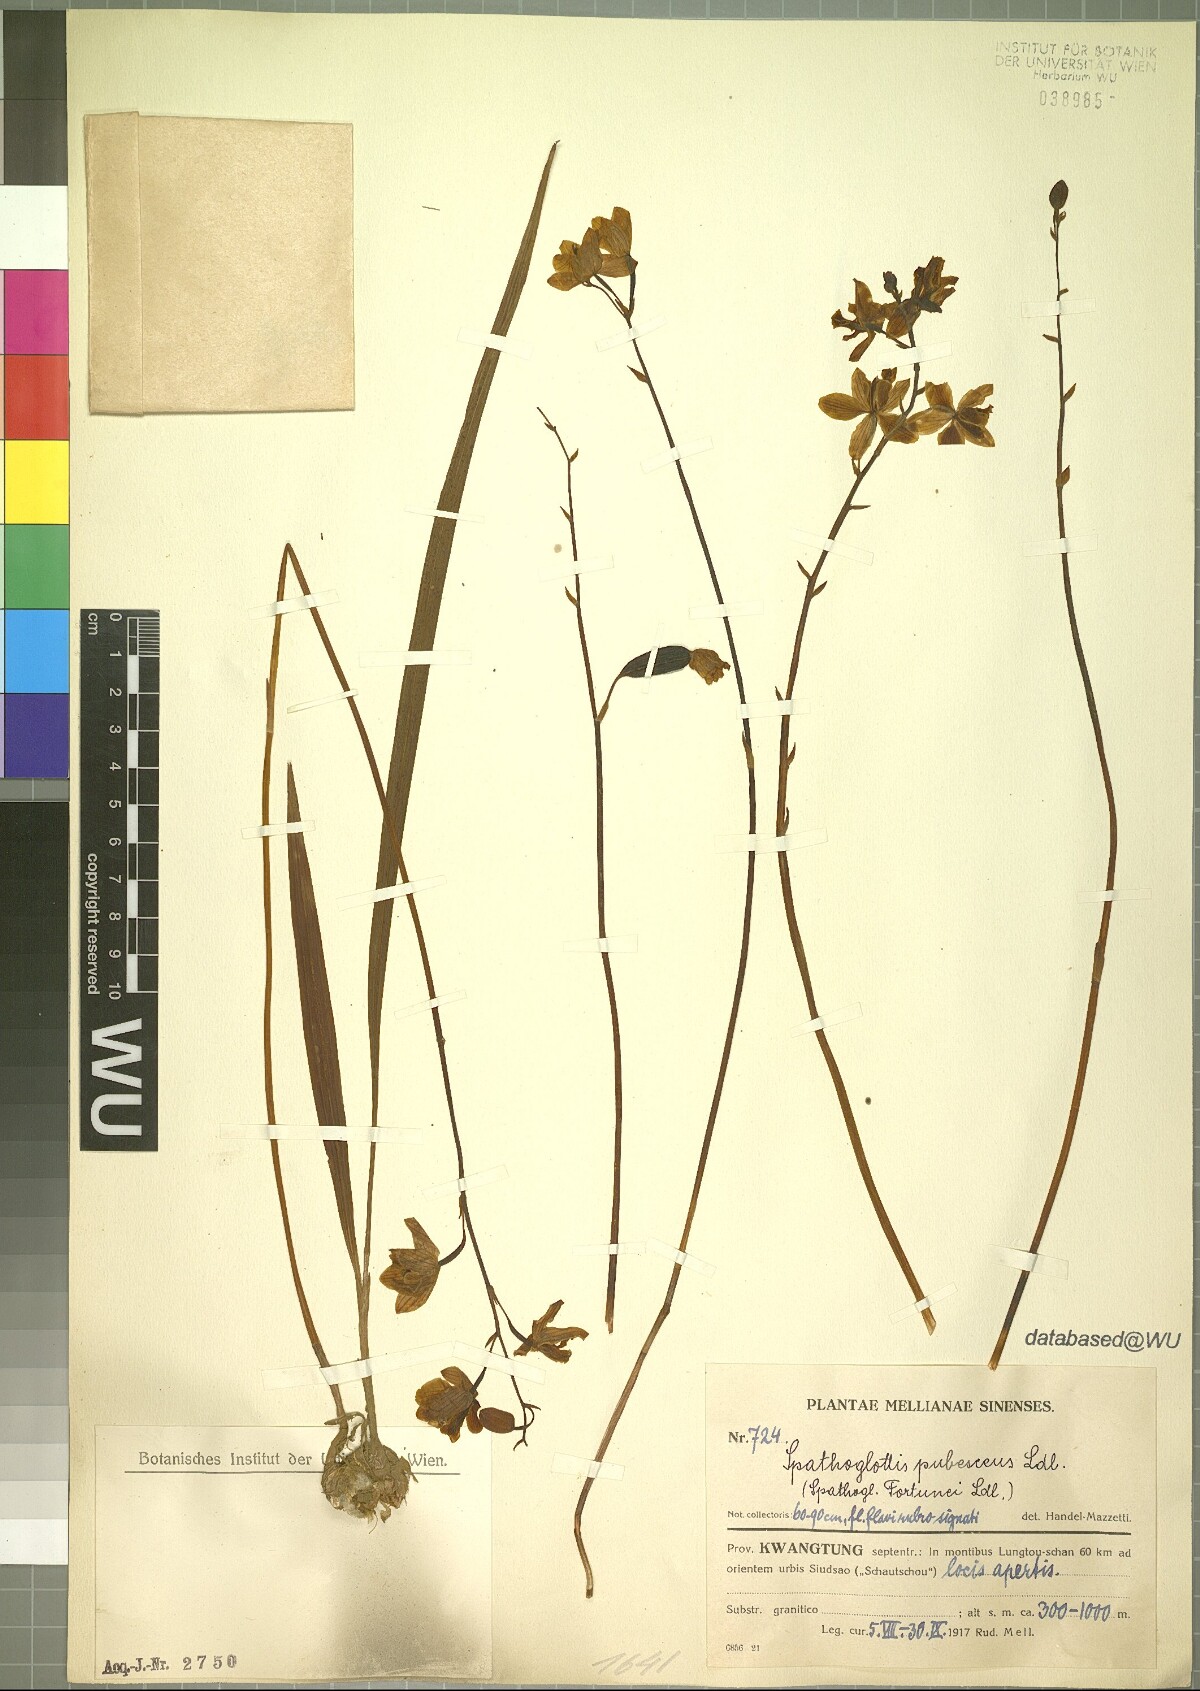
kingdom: Plantae
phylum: Tracheophyta
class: Liliopsida
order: Asparagales
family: Orchidaceae
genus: Spathoglottis
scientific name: Spathoglottis pubescens
